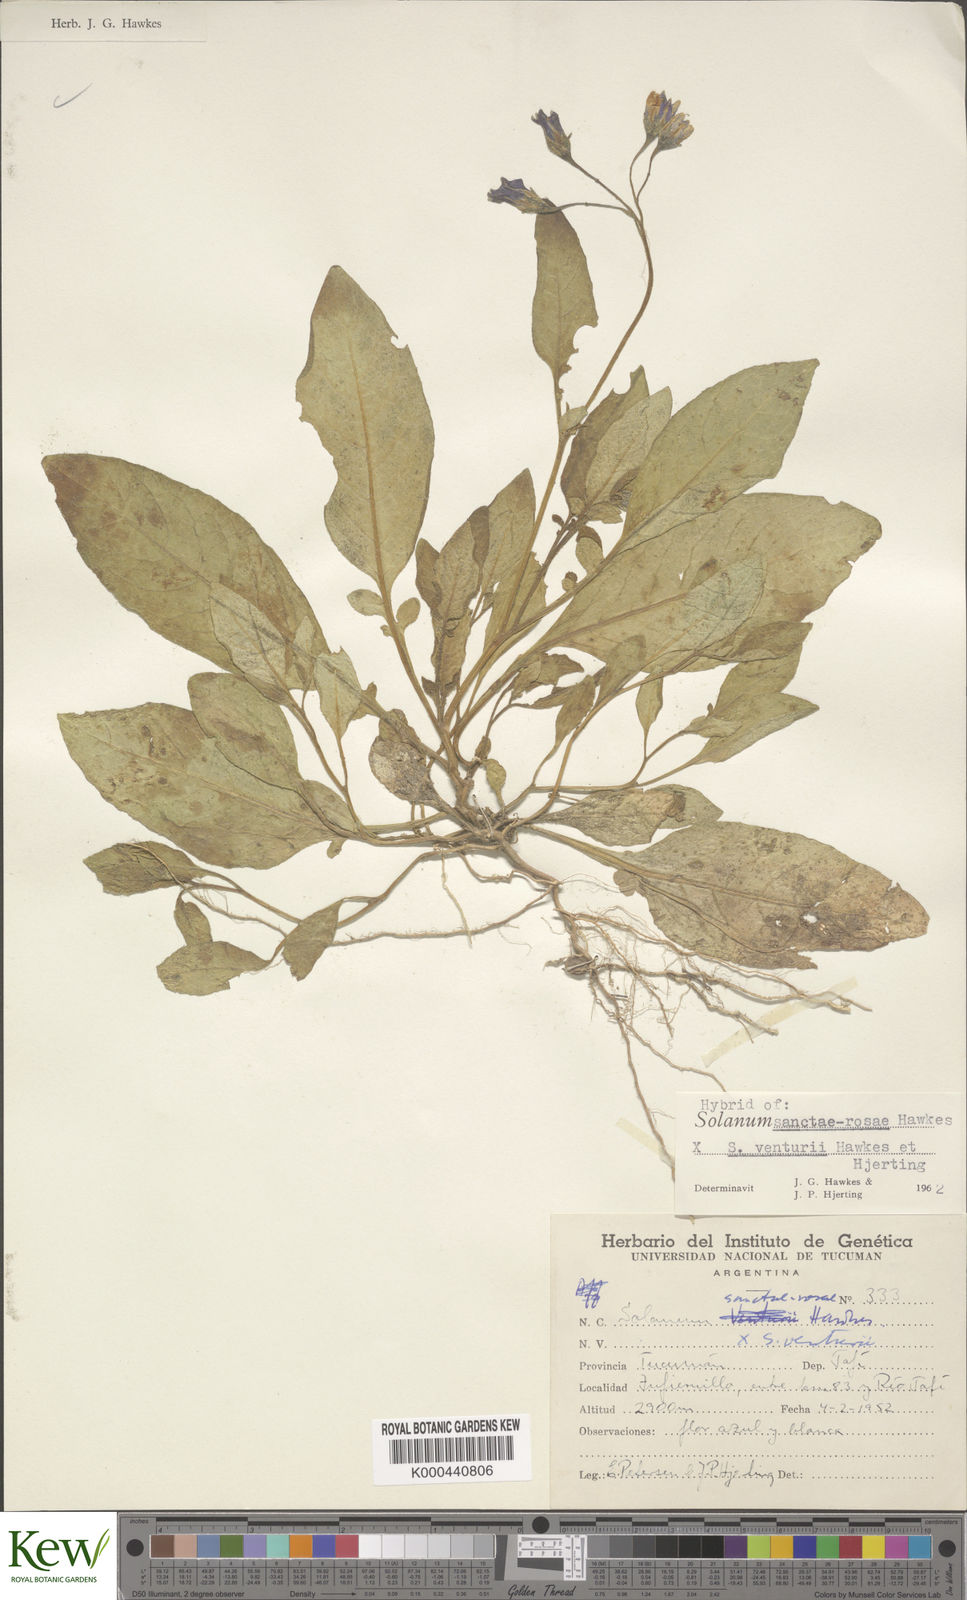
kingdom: Plantae
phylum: Tracheophyta
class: Magnoliopsida
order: Solanales
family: Solanaceae
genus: Solanum
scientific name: Solanum boliviense
